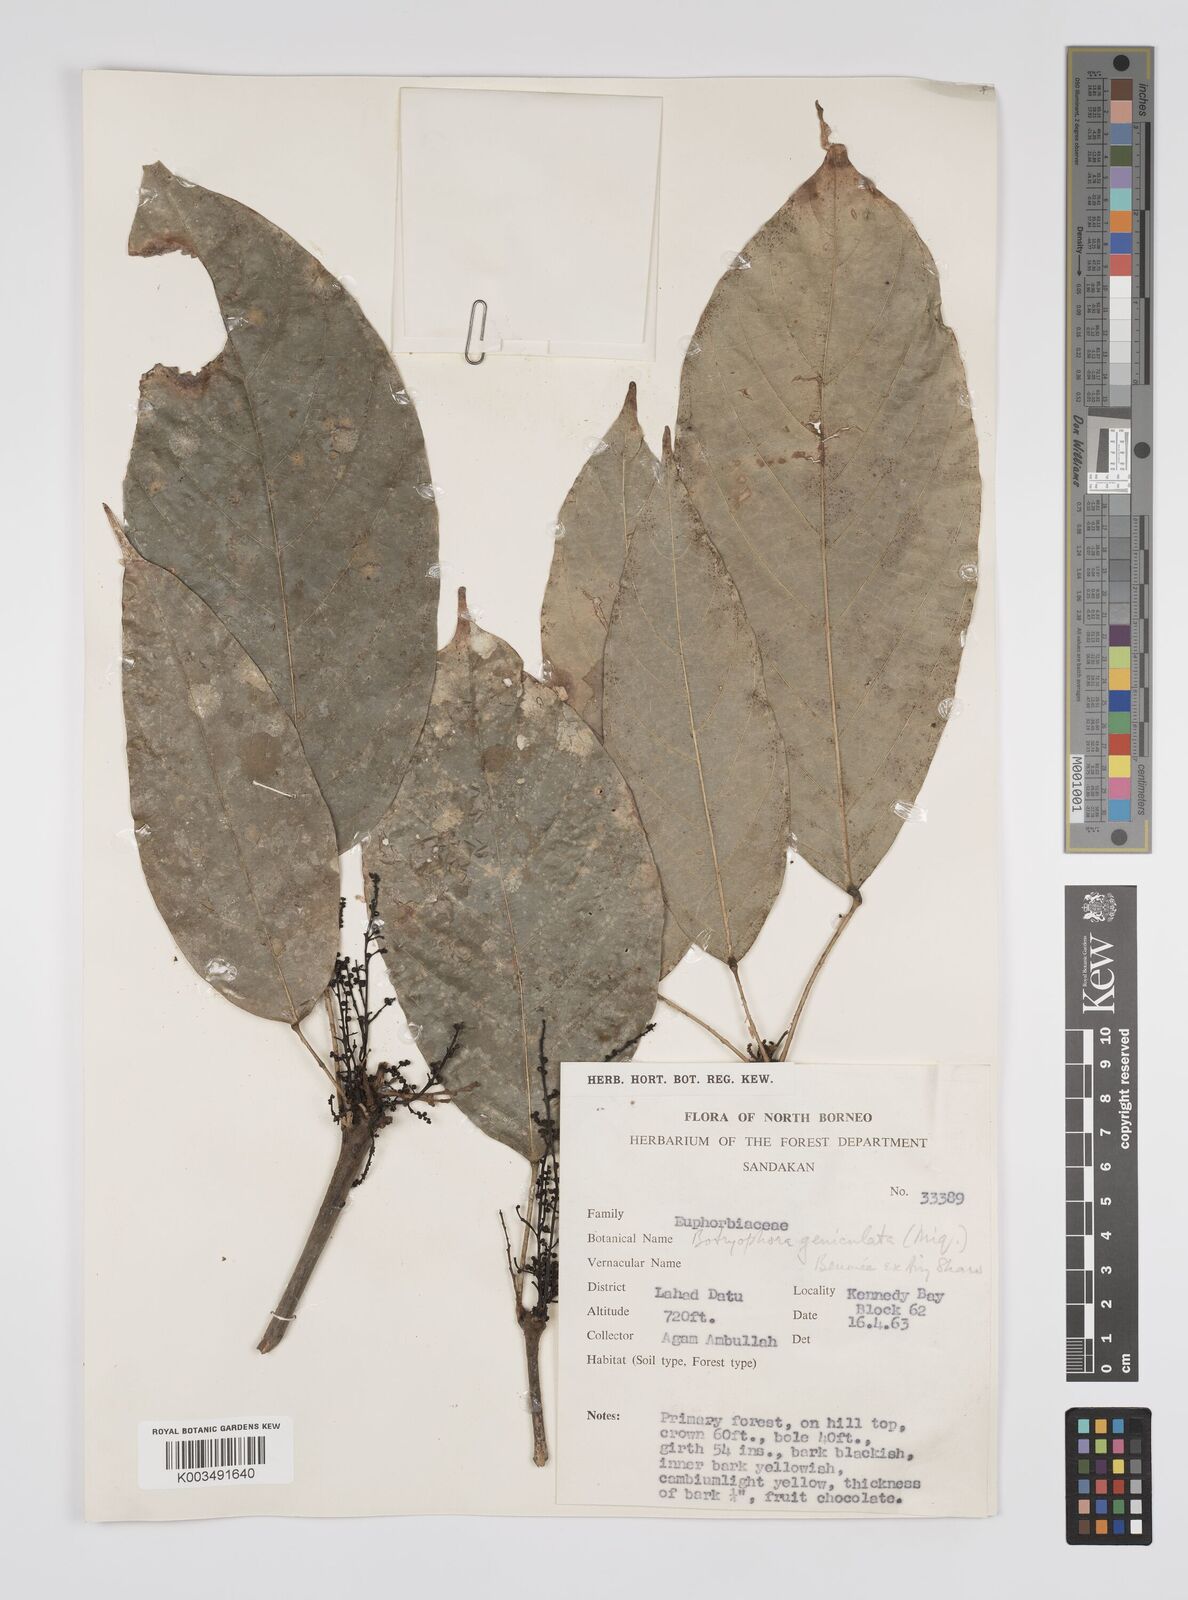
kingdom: Plantae
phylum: Tracheophyta
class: Magnoliopsida
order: Malpighiales
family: Euphorbiaceae
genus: Botryophora
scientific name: Botryophora geniculata
